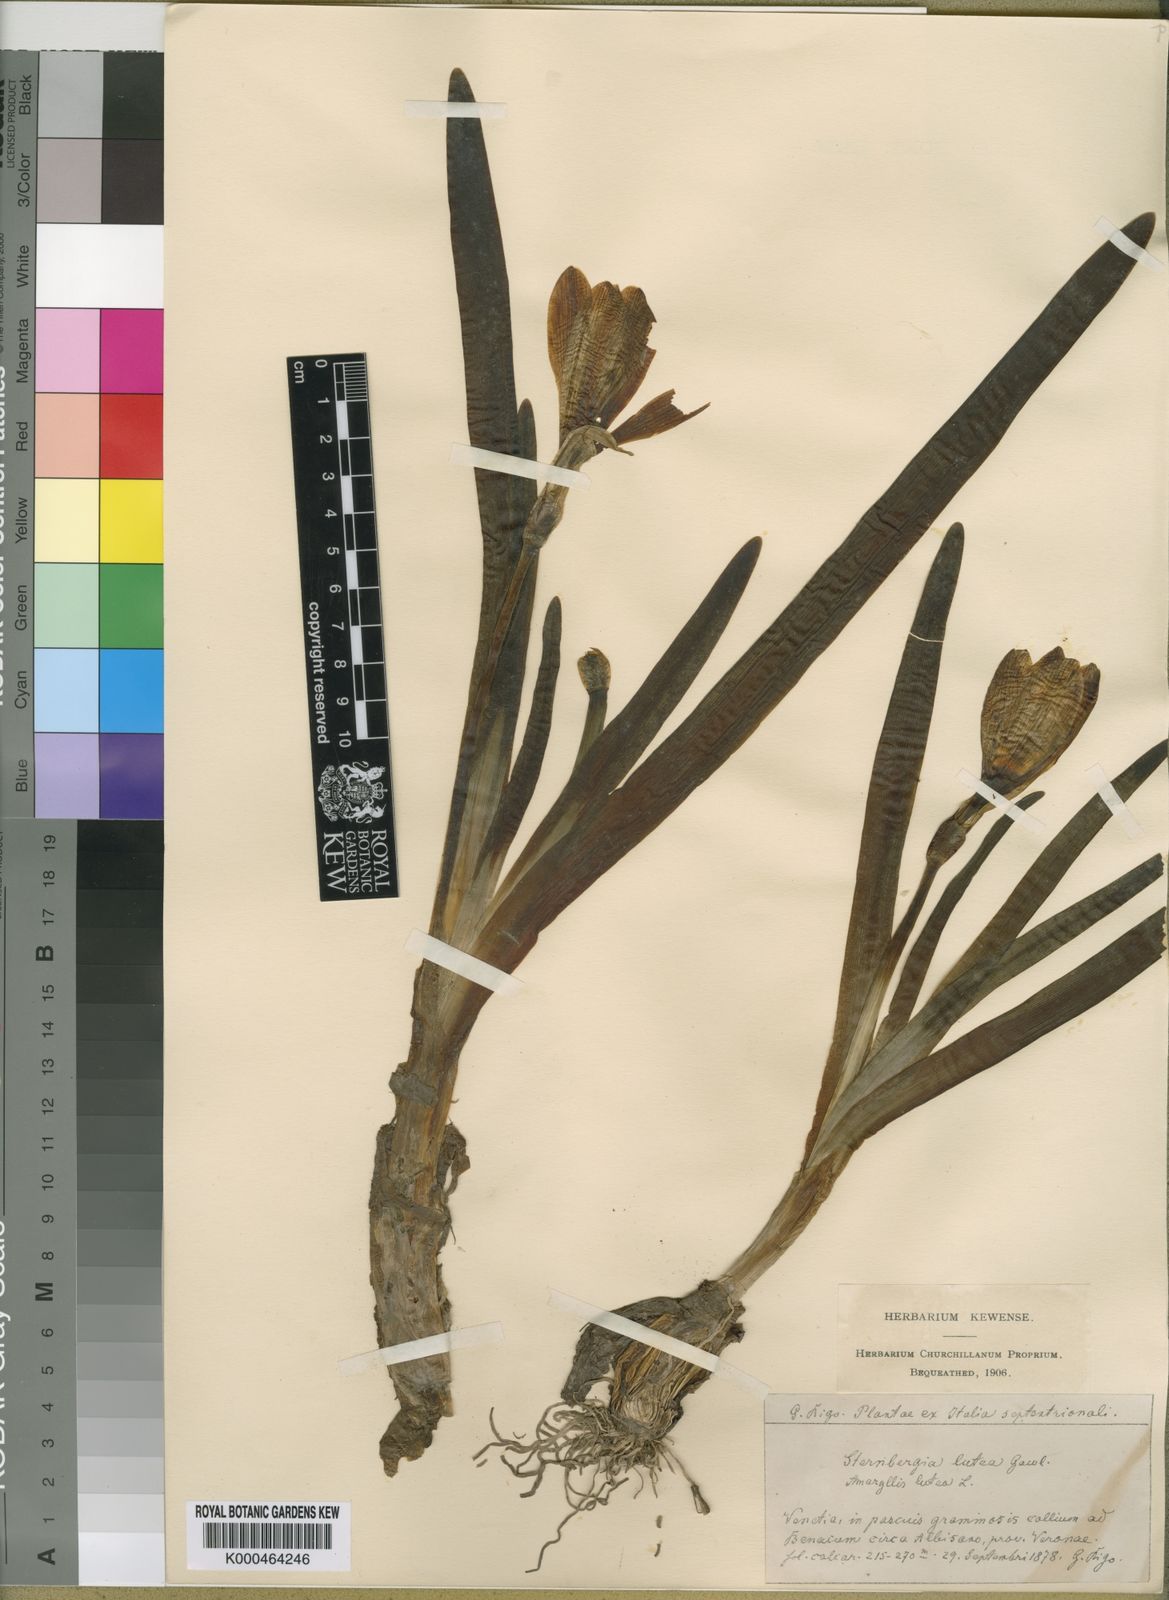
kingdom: Plantae
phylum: Tracheophyta
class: Liliopsida
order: Asparagales
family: Amaryllidaceae
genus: Sternbergia
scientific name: Sternbergia
